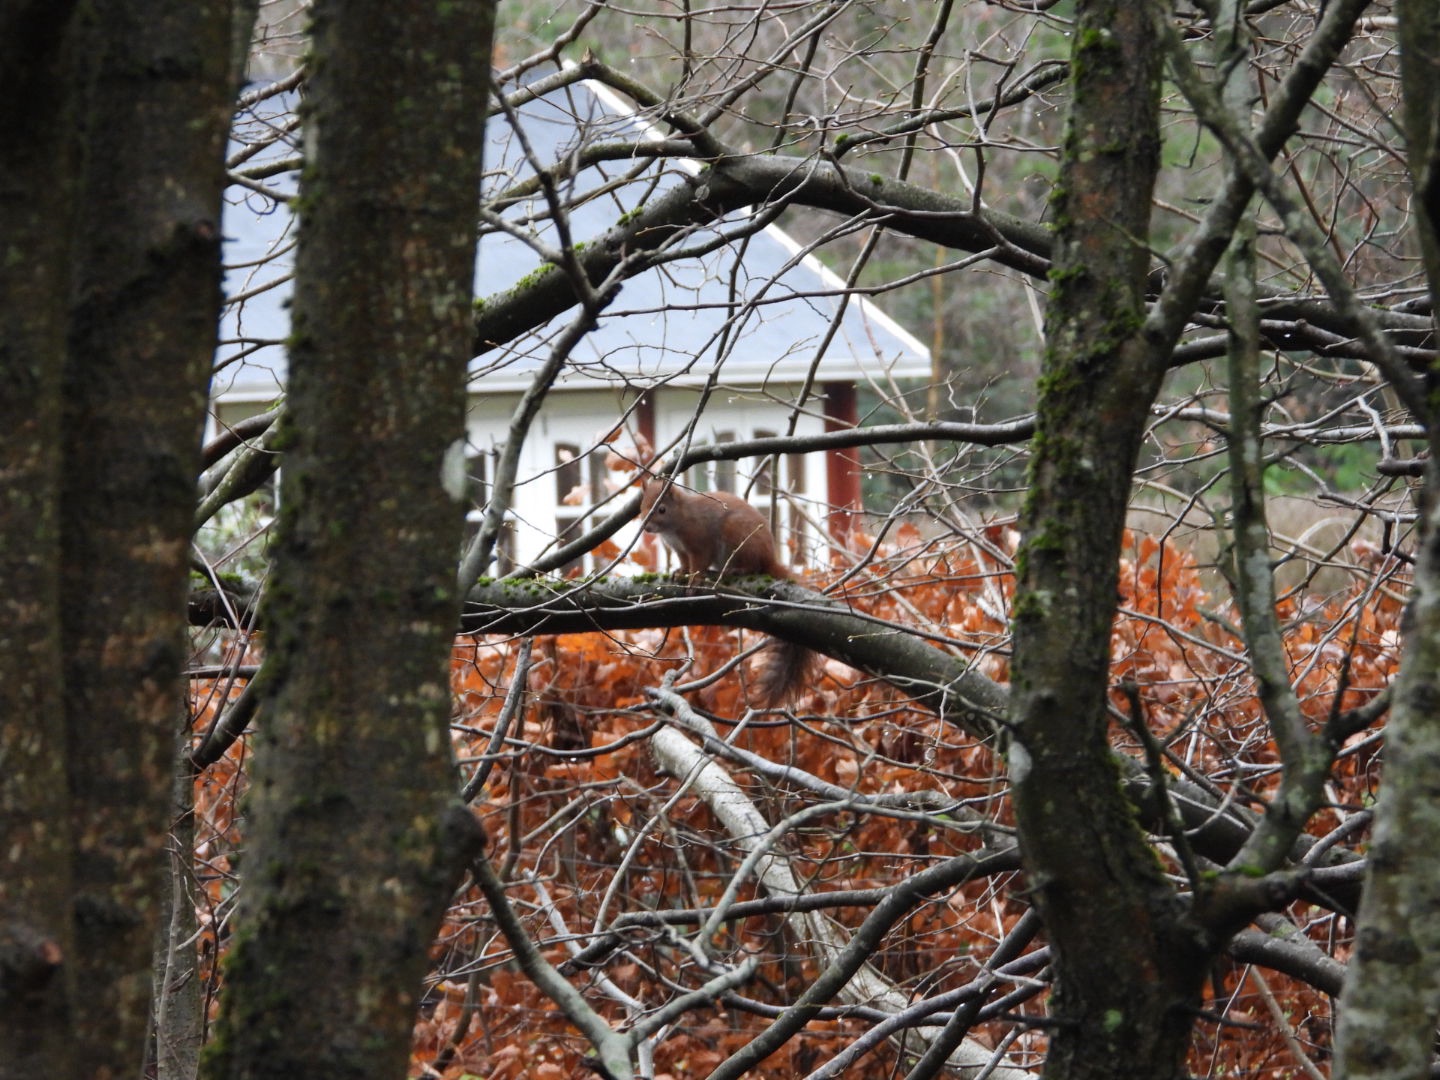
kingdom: Animalia
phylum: Chordata
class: Mammalia
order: Rodentia
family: Sciuridae
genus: Sciurus
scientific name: Sciurus vulgaris
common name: Egern
